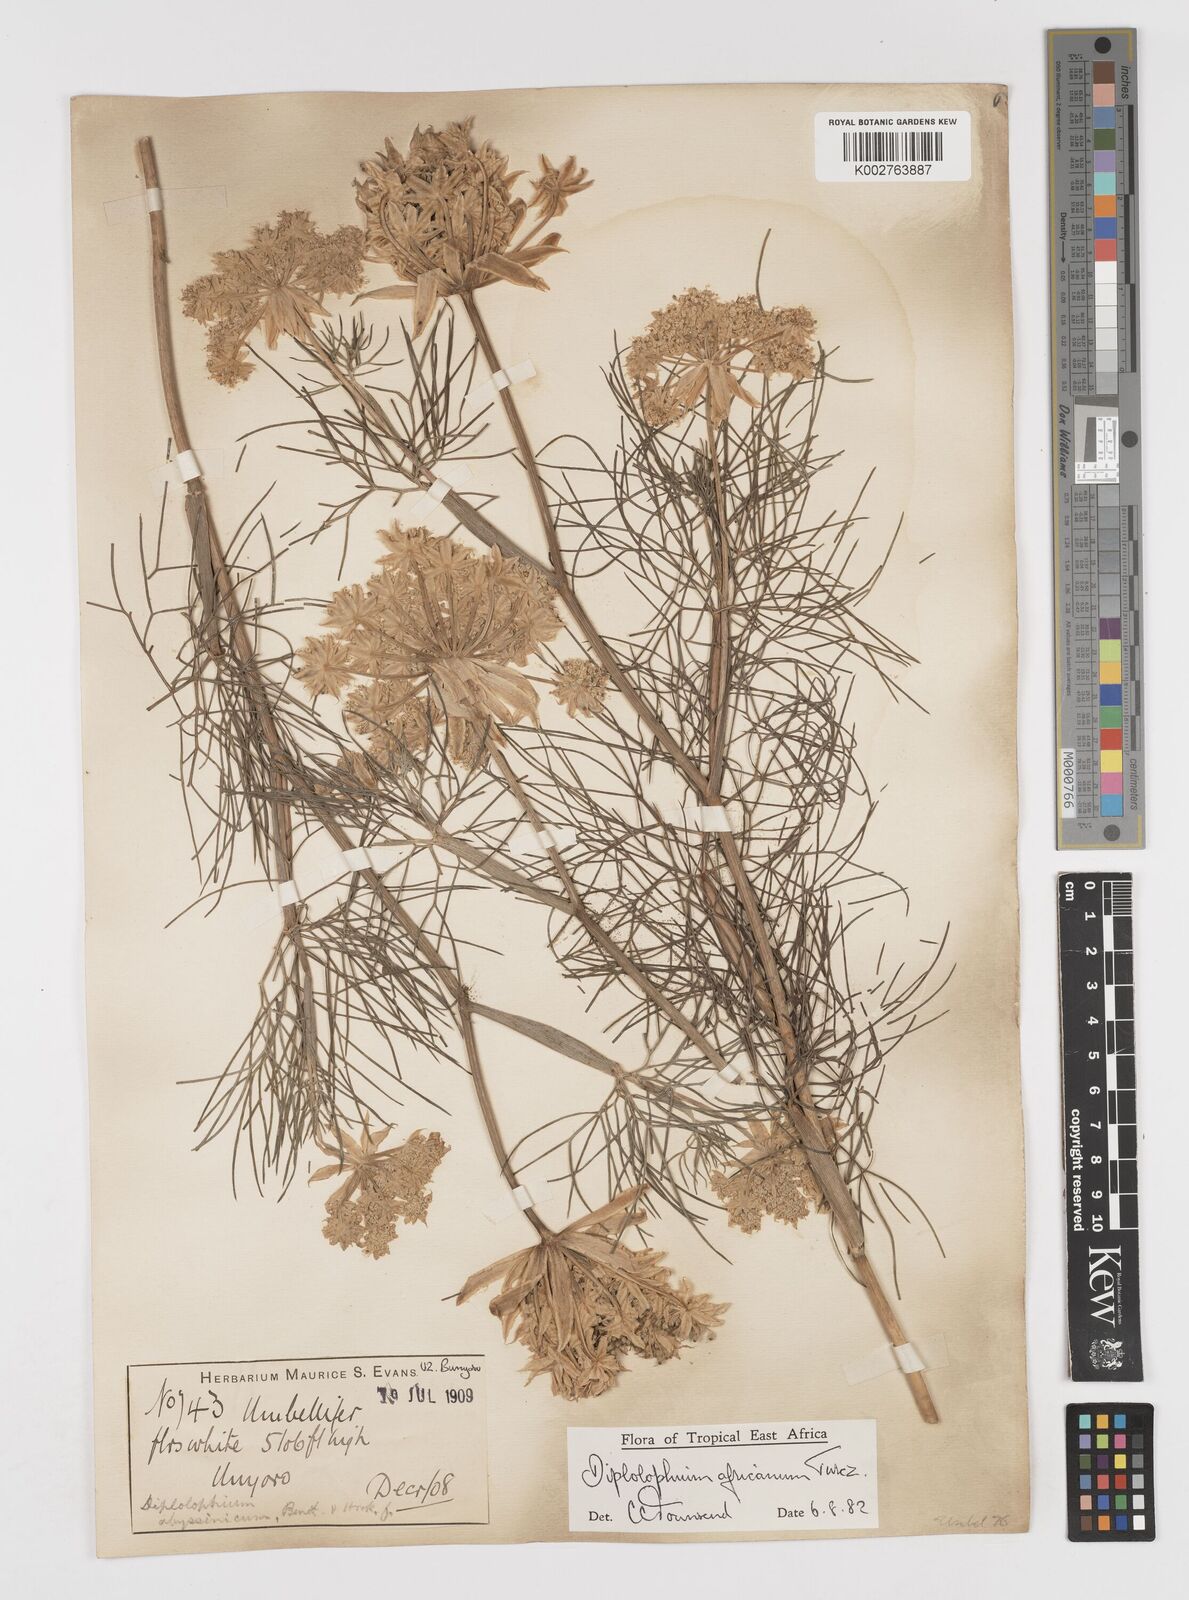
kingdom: Plantae
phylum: Tracheophyta
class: Magnoliopsida
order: Apiales
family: Apiaceae
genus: Diplolophium
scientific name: Diplolophium africanum
